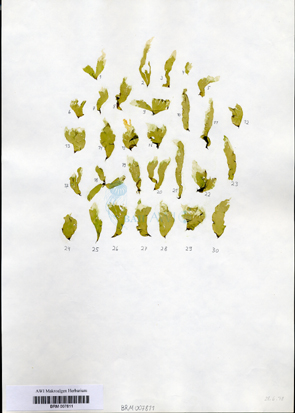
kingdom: Plantae
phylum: Chlorophyta
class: Ulvophyceae
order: Ulvales
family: Ulvaceae
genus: Ulva
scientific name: Ulva tenera
